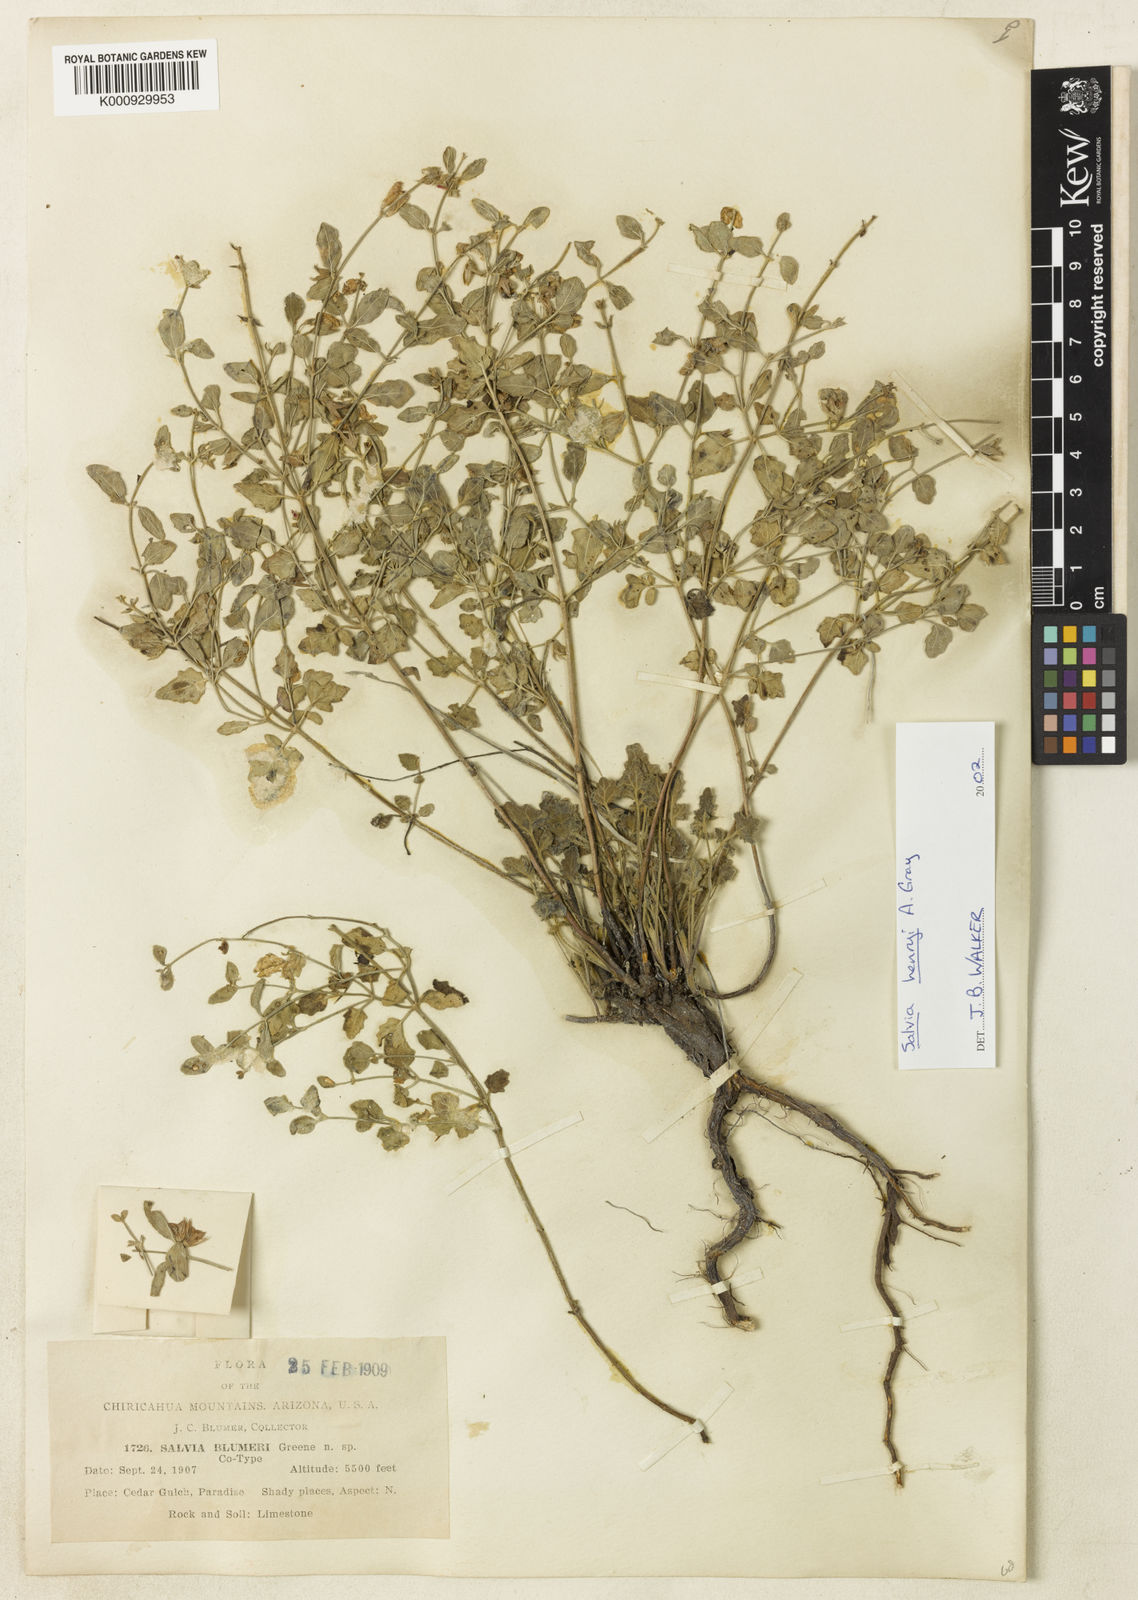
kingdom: Plantae
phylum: Tracheophyta
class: Magnoliopsida
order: Lamiales
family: Lamiaceae
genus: Salvia
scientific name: Salvia
